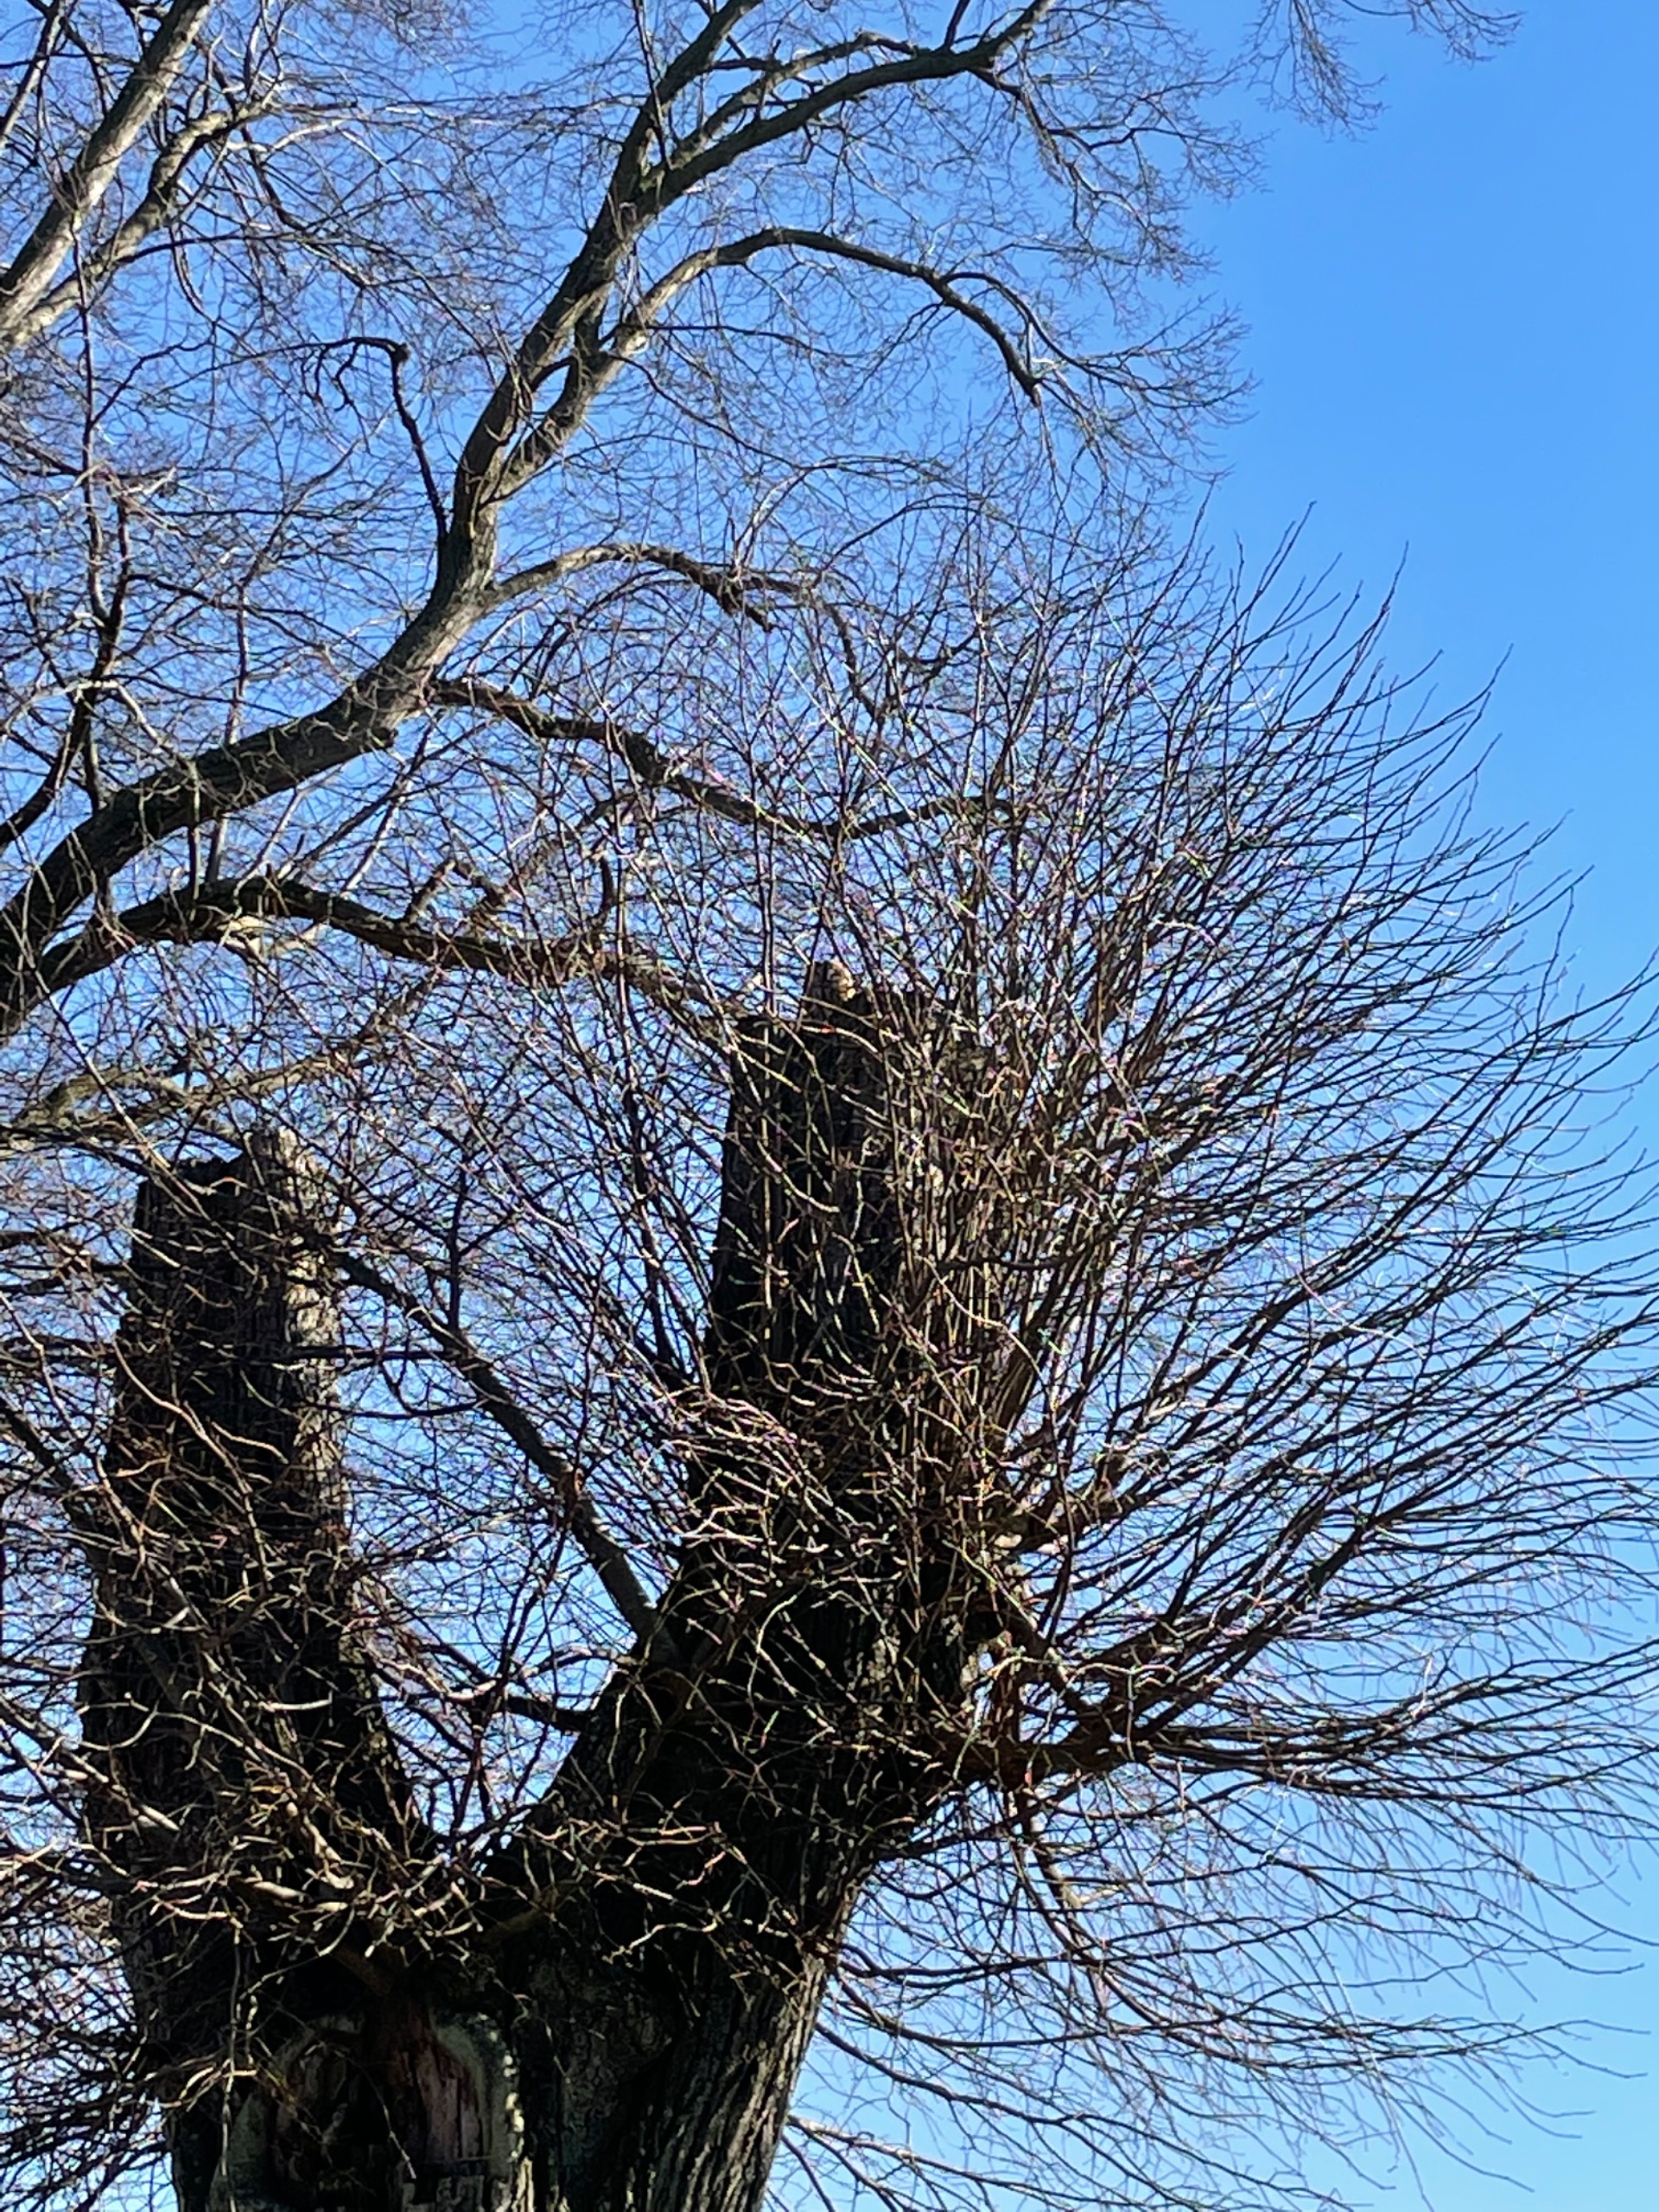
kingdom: Animalia
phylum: Chordata
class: Aves
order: Strigiformes
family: Strigidae
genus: Strix
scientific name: Strix aluco
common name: Natugle
